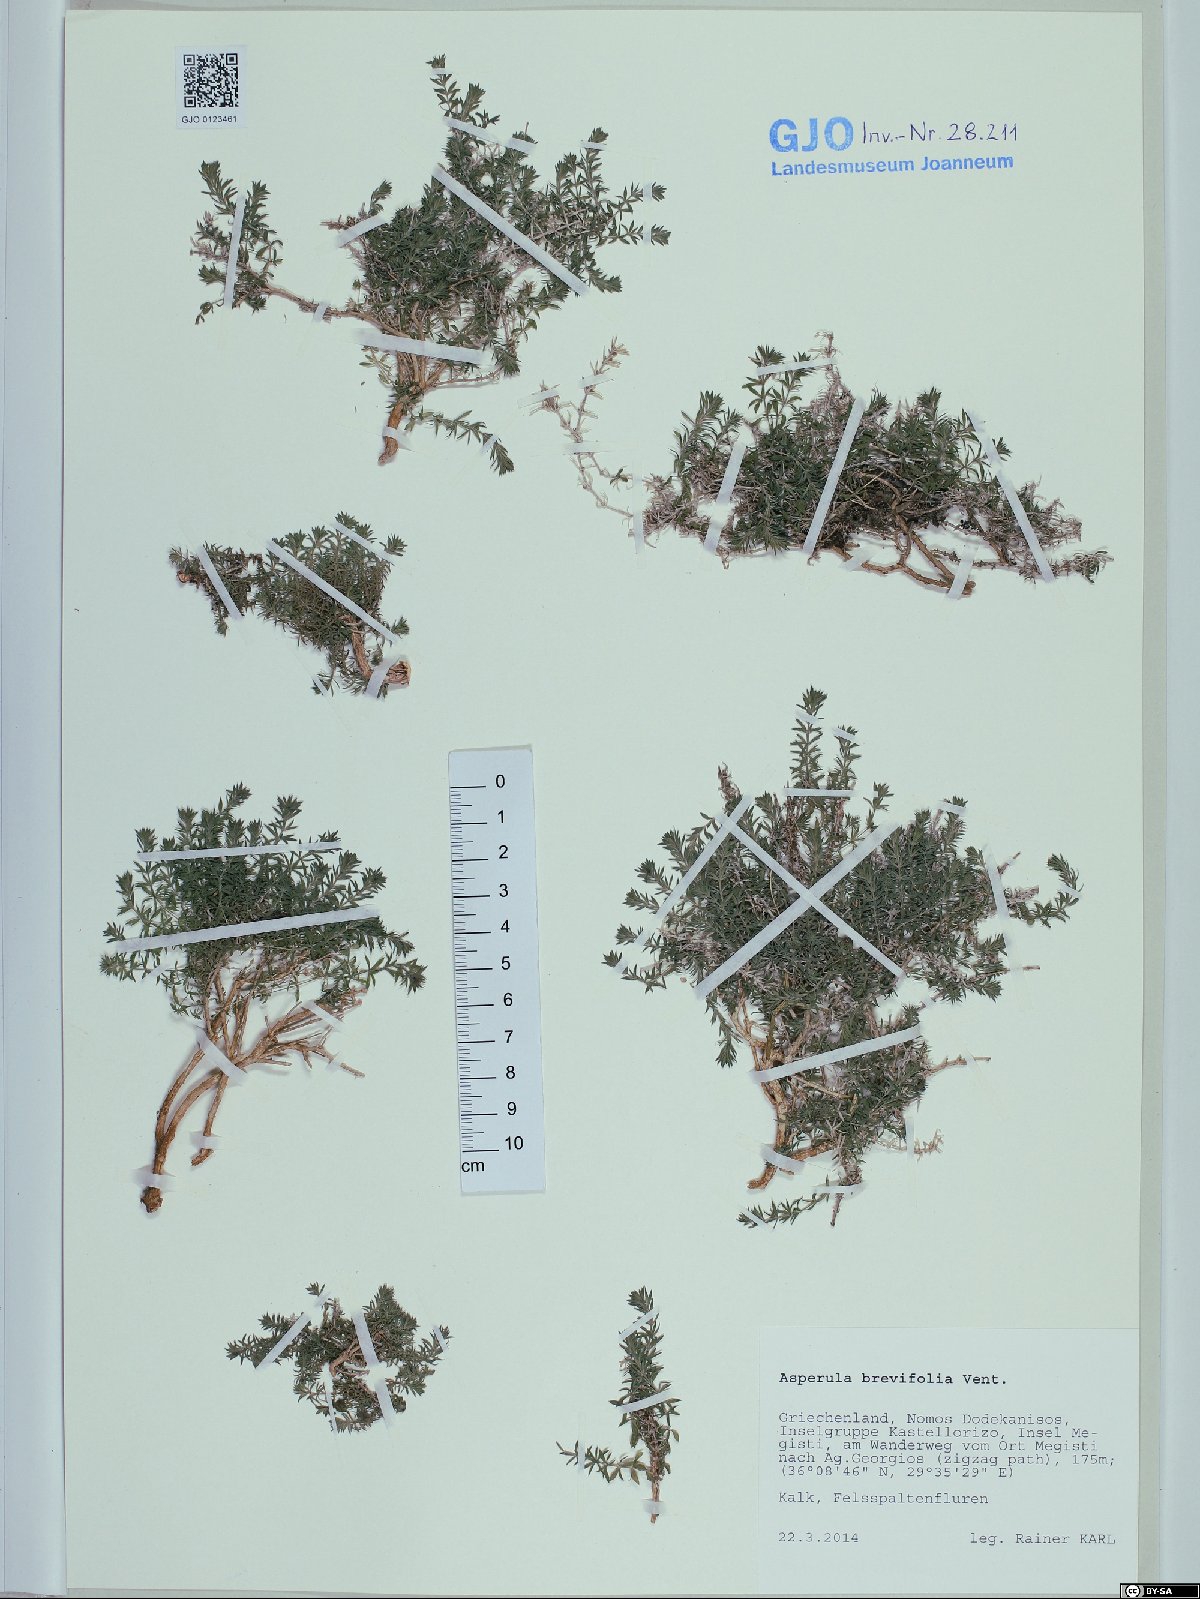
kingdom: Plantae
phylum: Tracheophyta
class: Magnoliopsida
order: Gentianales
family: Rubiaceae
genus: Thliphthisa
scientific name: Thliphthisa brevifolia
